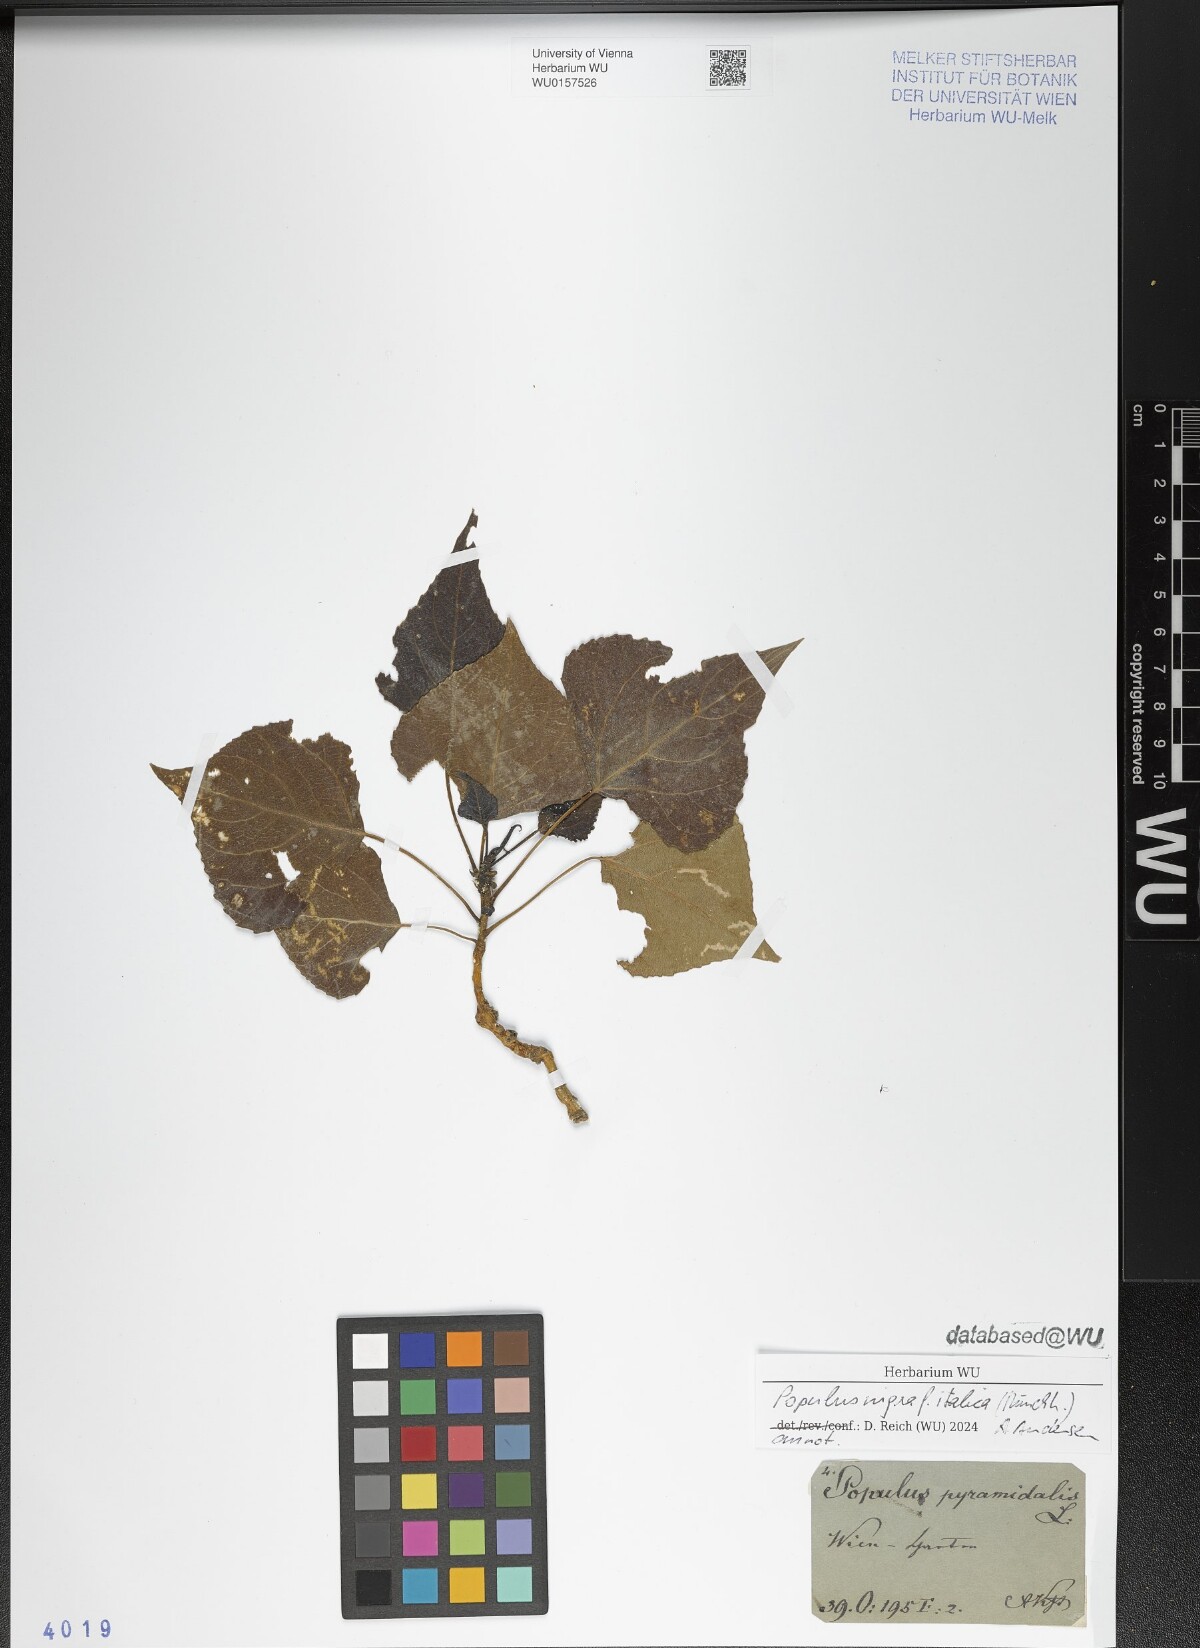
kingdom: Plantae
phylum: Tracheophyta
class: Magnoliopsida
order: Malpighiales
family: Salicaceae
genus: Populus
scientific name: Populus nigra
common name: Black poplar
